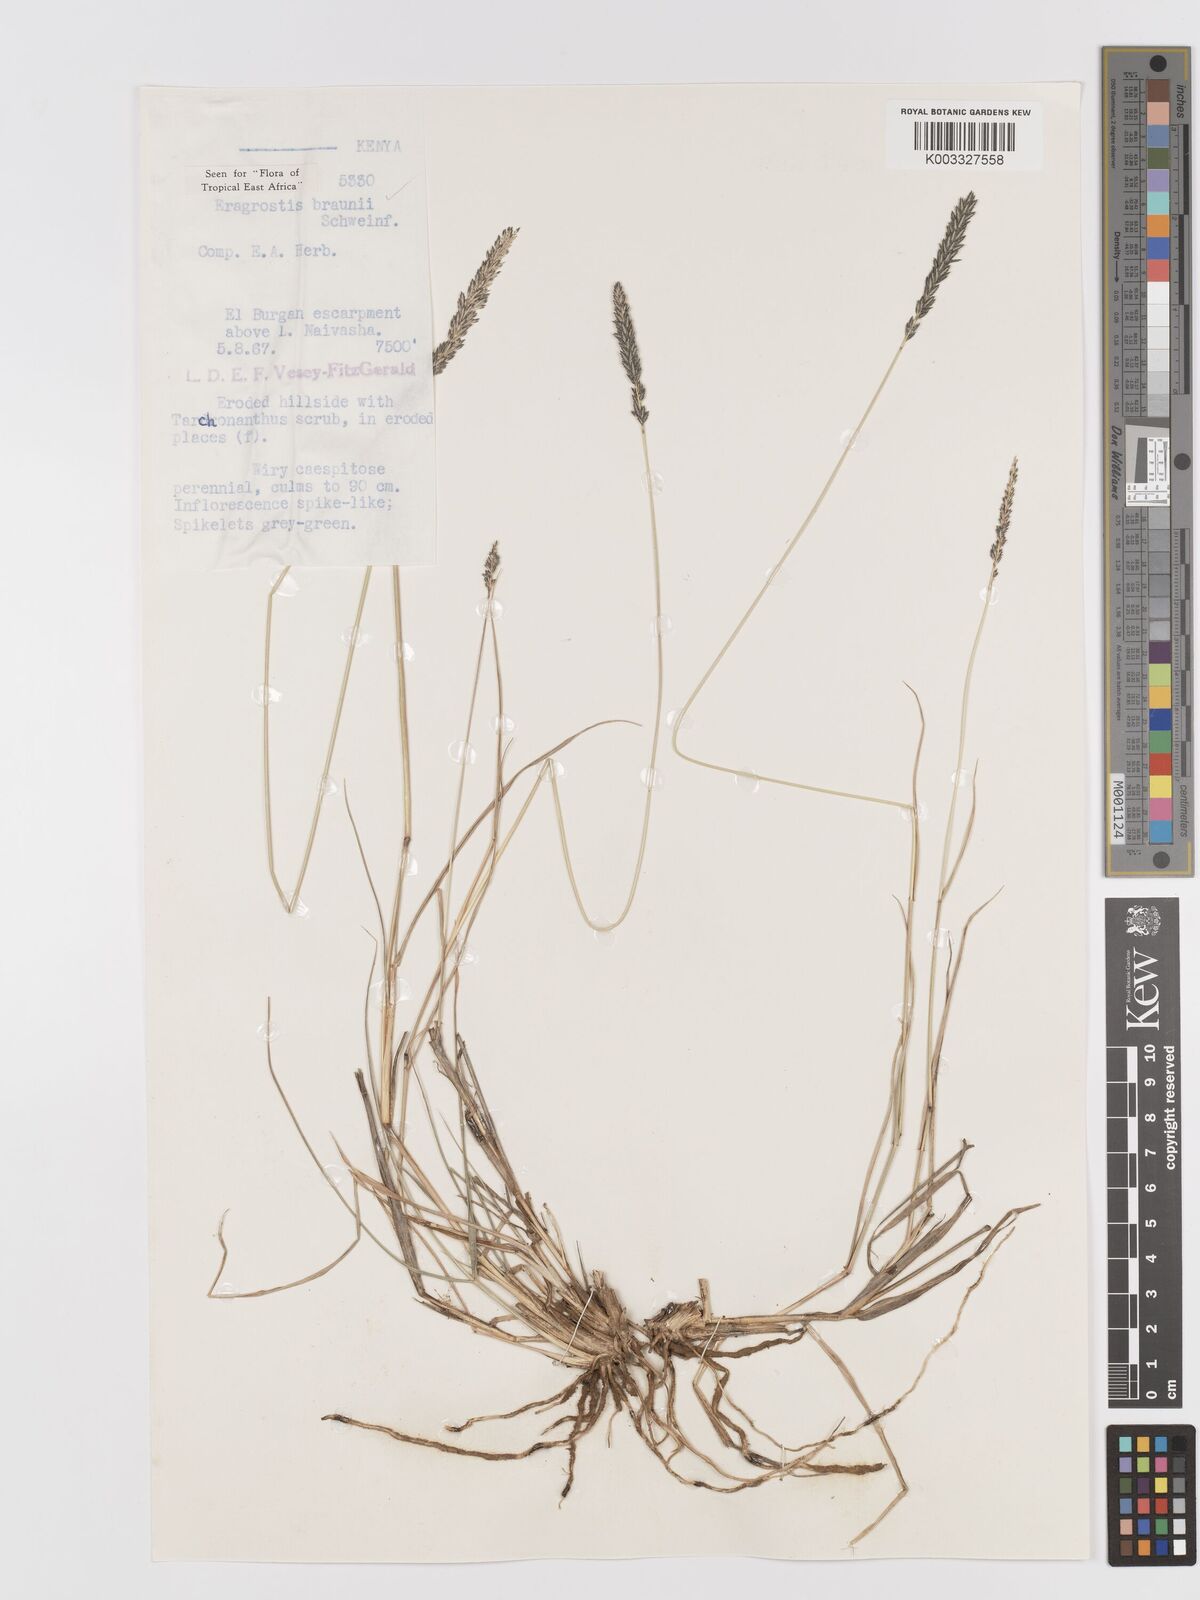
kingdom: Plantae
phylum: Tracheophyta
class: Liliopsida
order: Poales
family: Poaceae
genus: Eragrostis
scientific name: Eragrostis braunii
